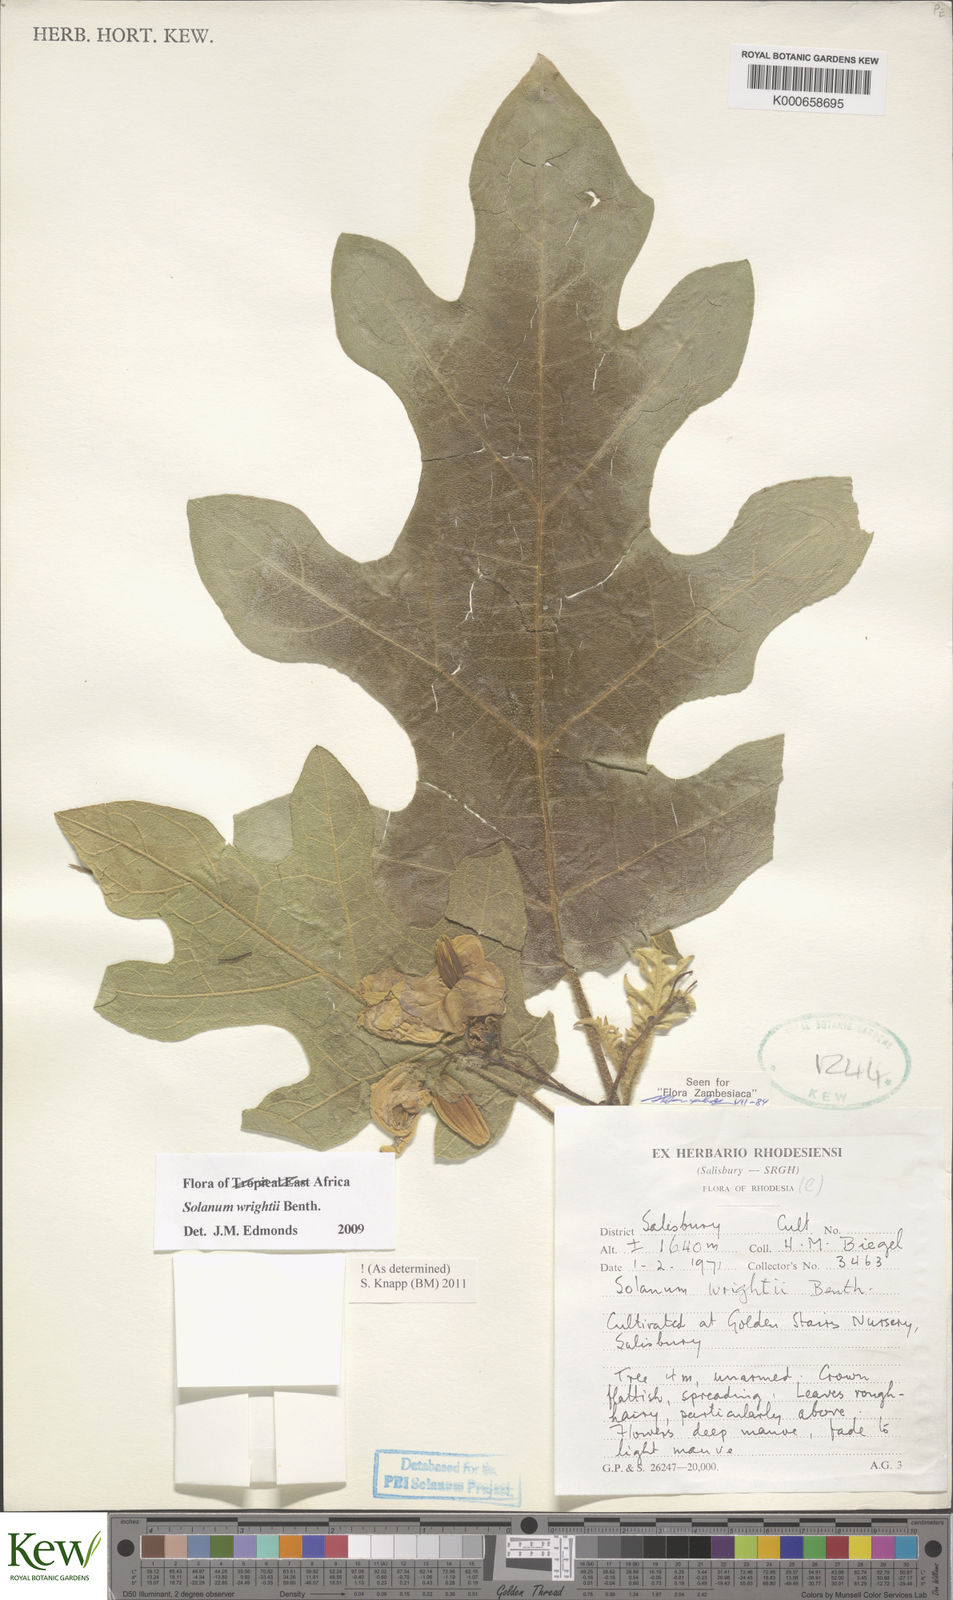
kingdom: Plantae
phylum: Tracheophyta
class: Magnoliopsida
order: Solanales
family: Solanaceae
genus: Solanum
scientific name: Solanum wrightii
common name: Brazilian potato-tree
